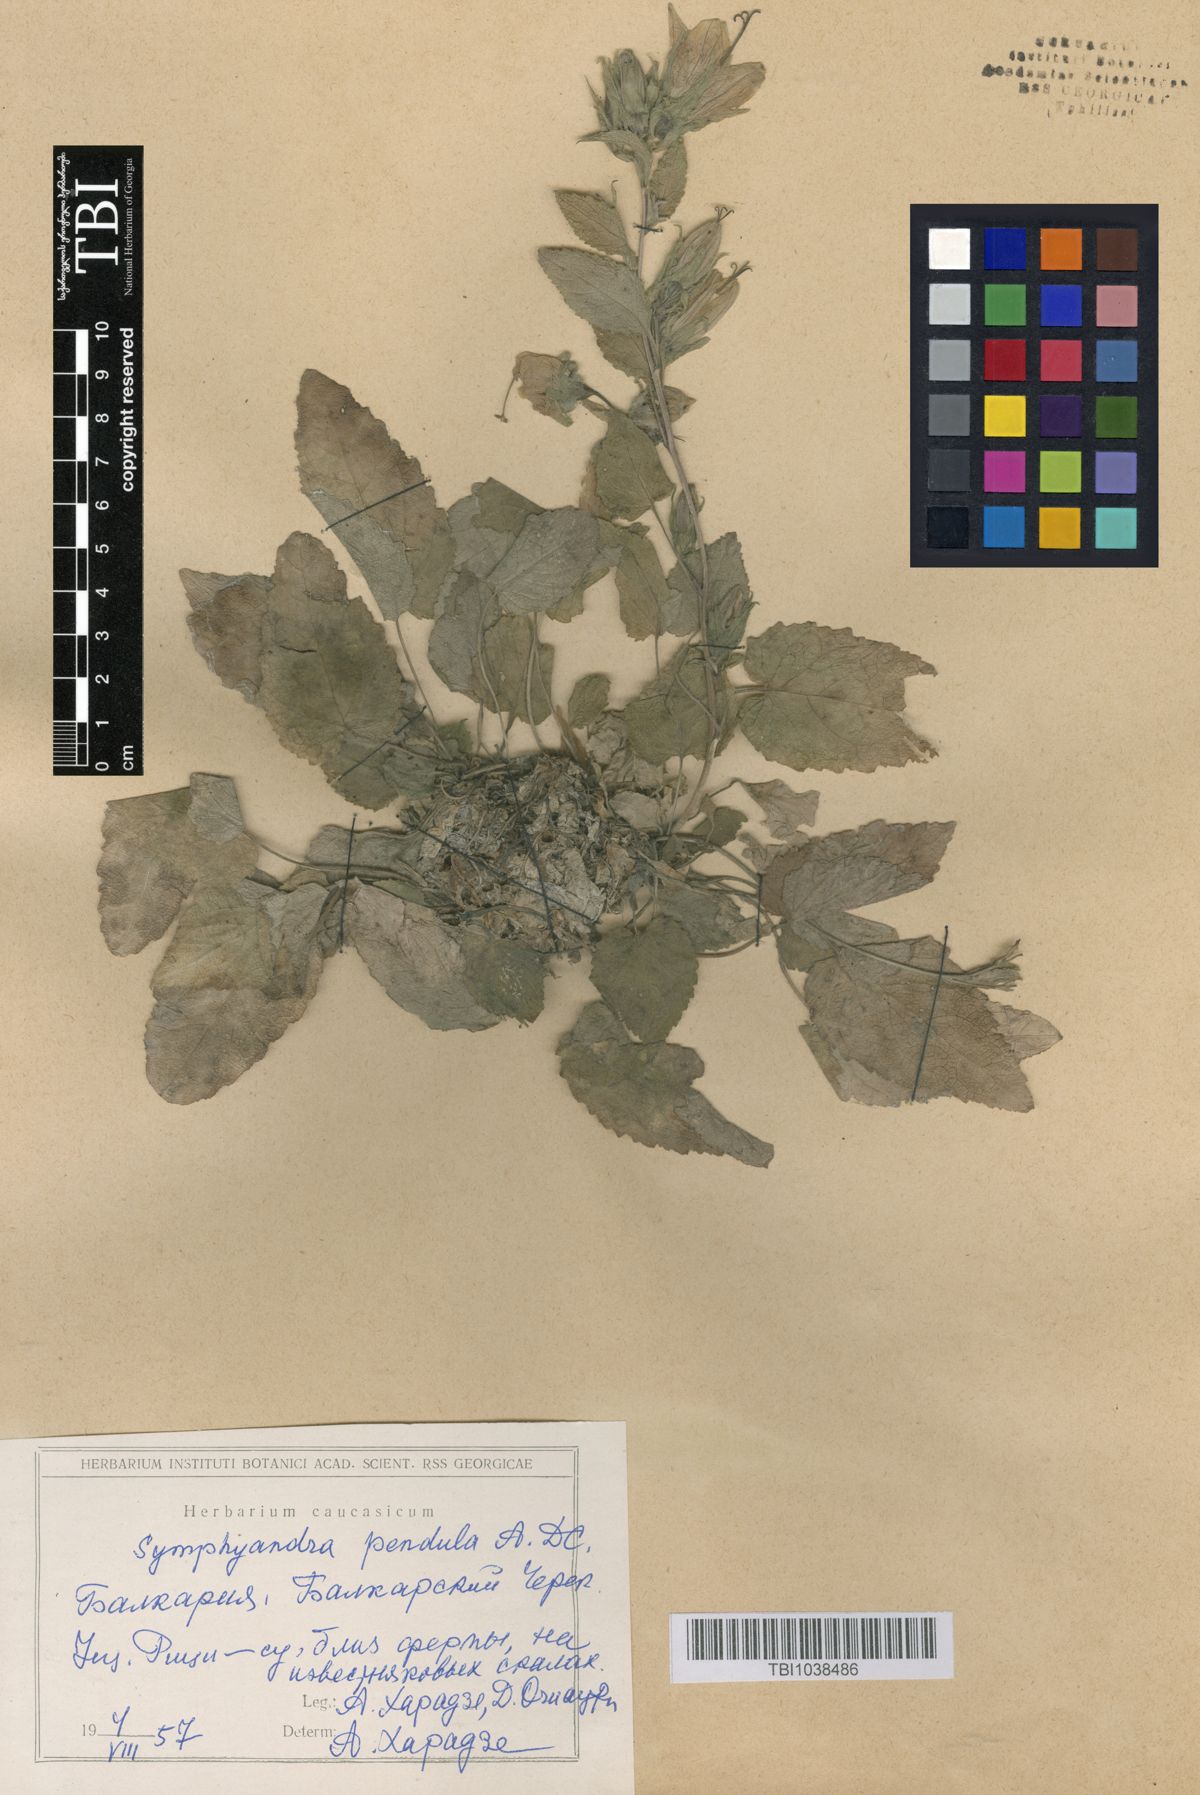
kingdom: Plantae
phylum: Tracheophyta
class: Magnoliopsida
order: Asterales
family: Campanulaceae
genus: Campanula
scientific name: Campanula pendula
